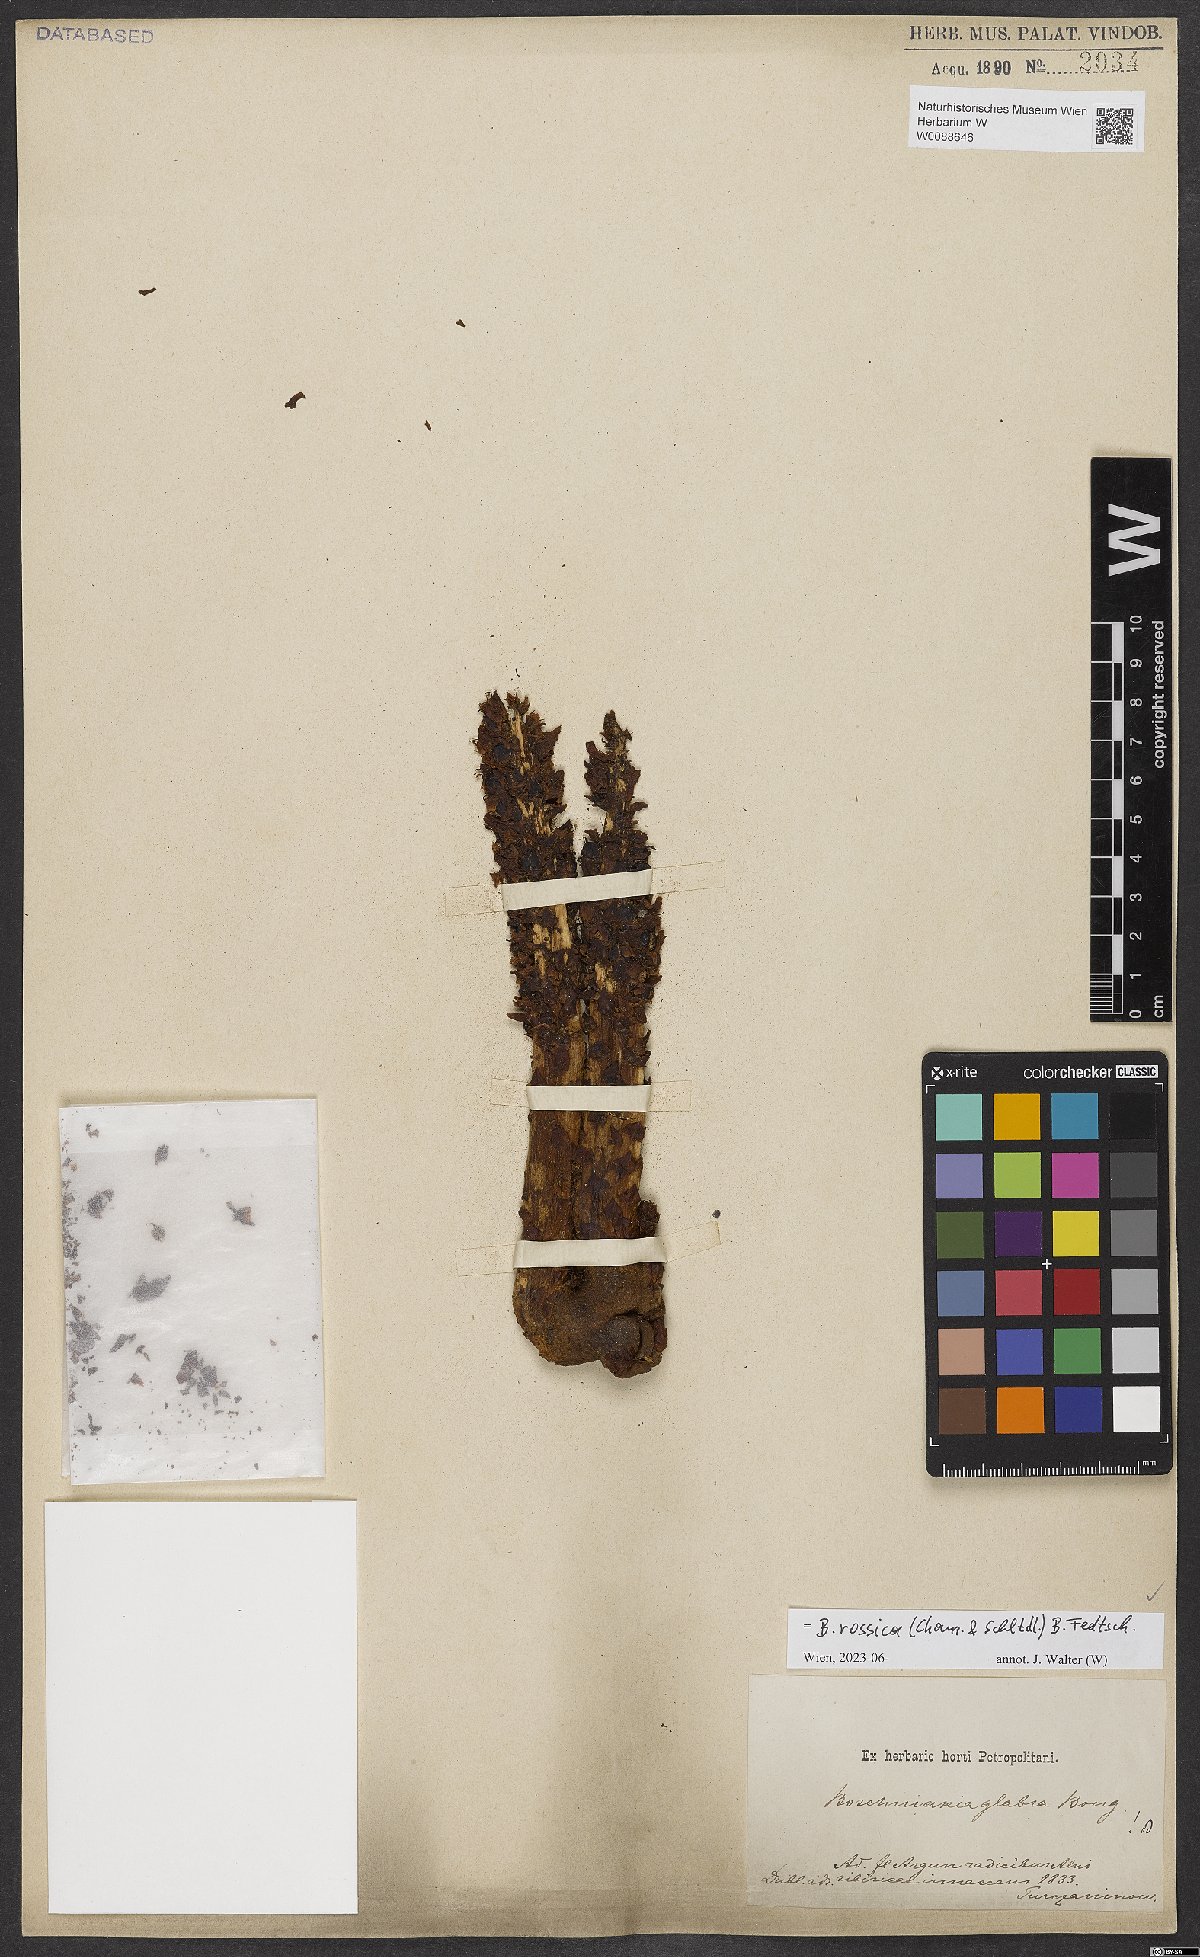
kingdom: Plantae
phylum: Tracheophyta
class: Magnoliopsida
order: Lamiales
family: Orobanchaceae
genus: Boschniakia
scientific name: Boschniakia rossica
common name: Poque
